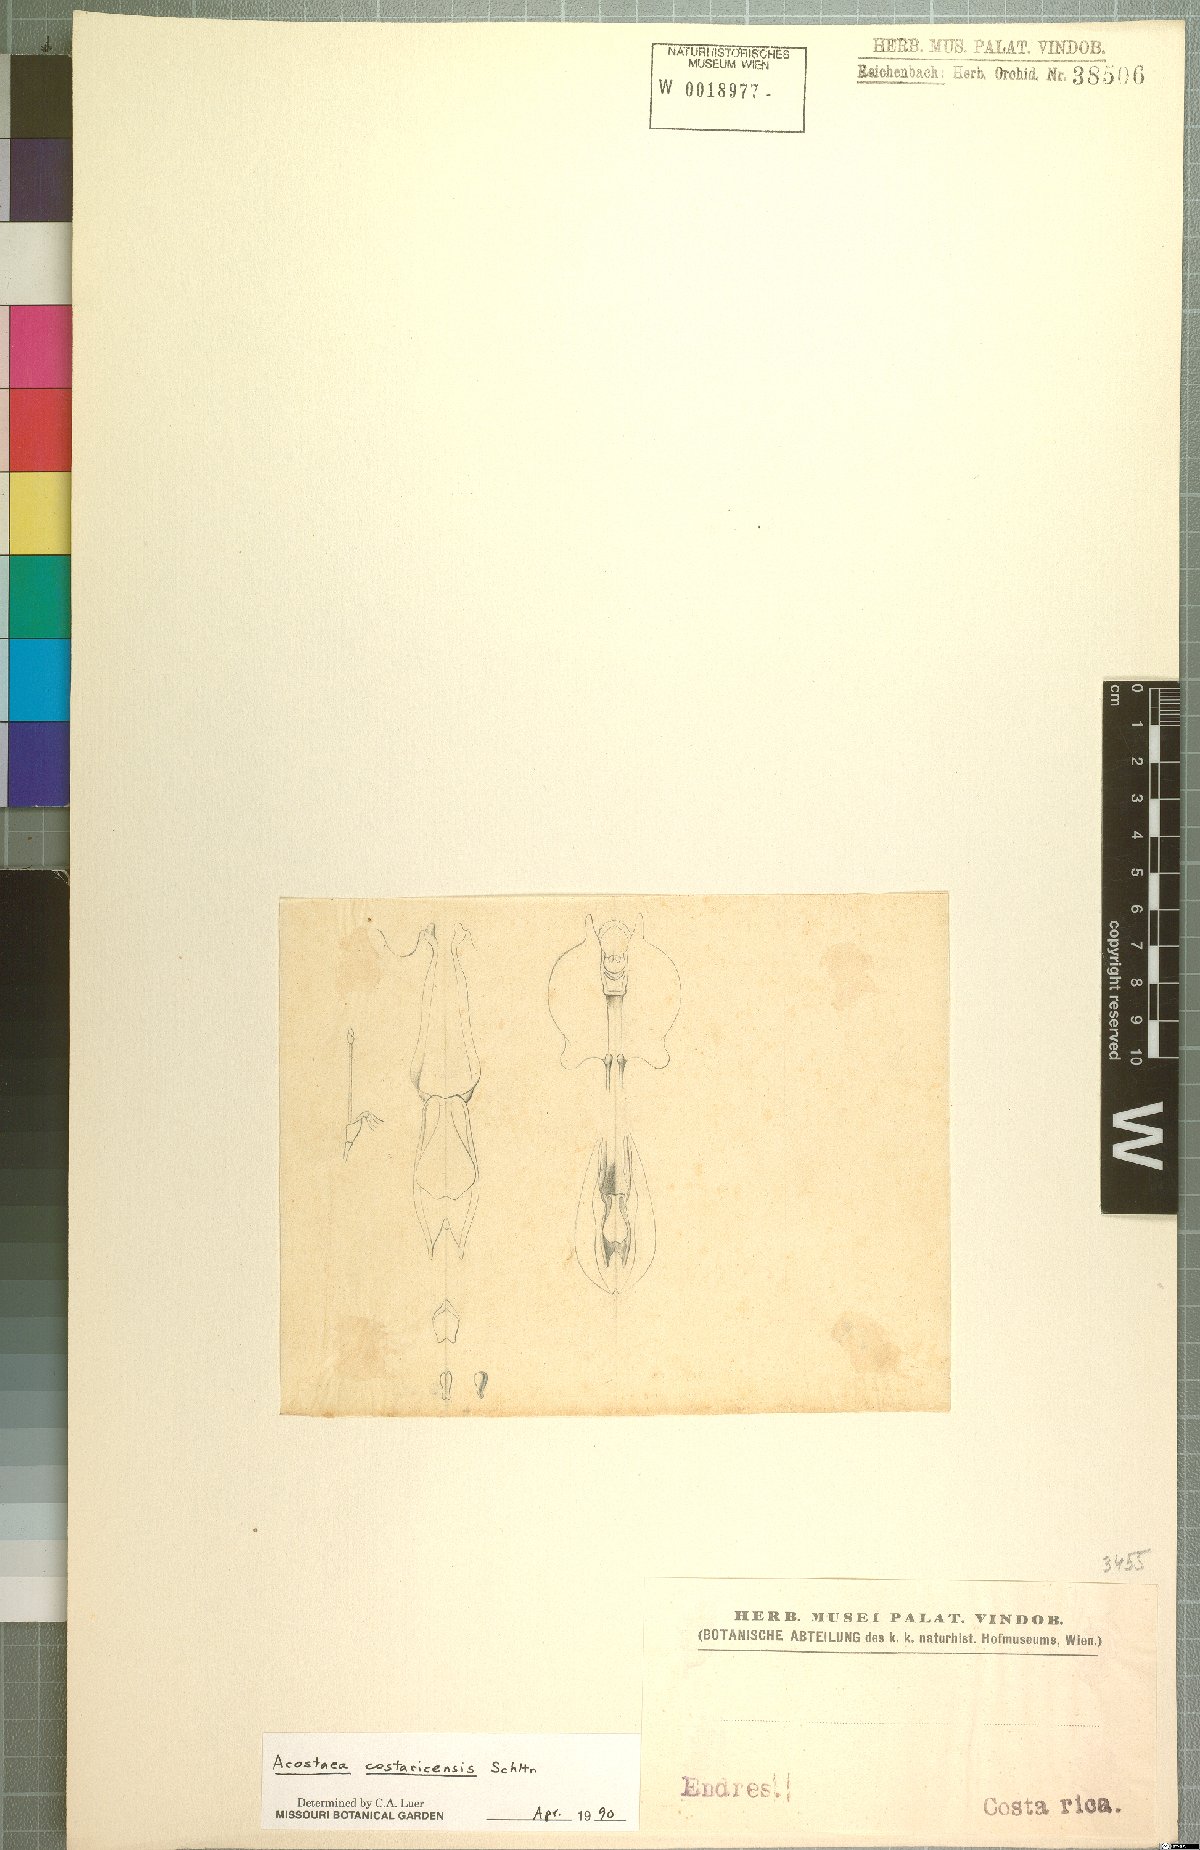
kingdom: Plantae
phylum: Tracheophyta
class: Liliopsida
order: Asparagales
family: Orchidaceae
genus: Specklinia
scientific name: Specklinia colombiana
